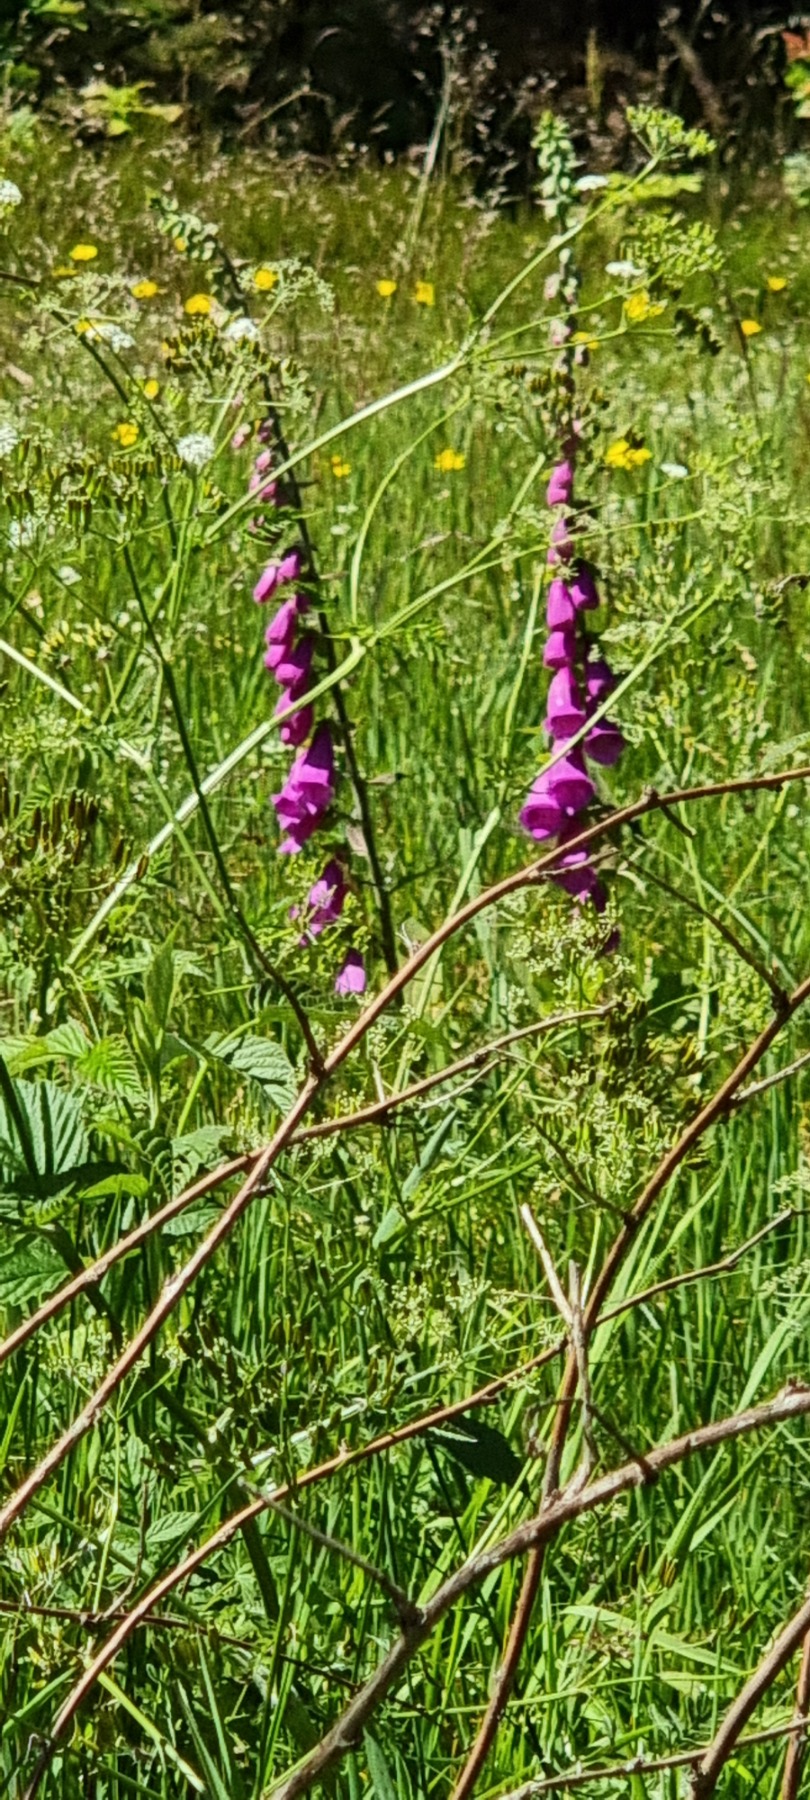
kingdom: Plantae
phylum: Tracheophyta
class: Magnoliopsida
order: Lamiales
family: Plantaginaceae
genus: Digitalis
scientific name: Digitalis purpurea
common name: Almindelig fingerbøl
